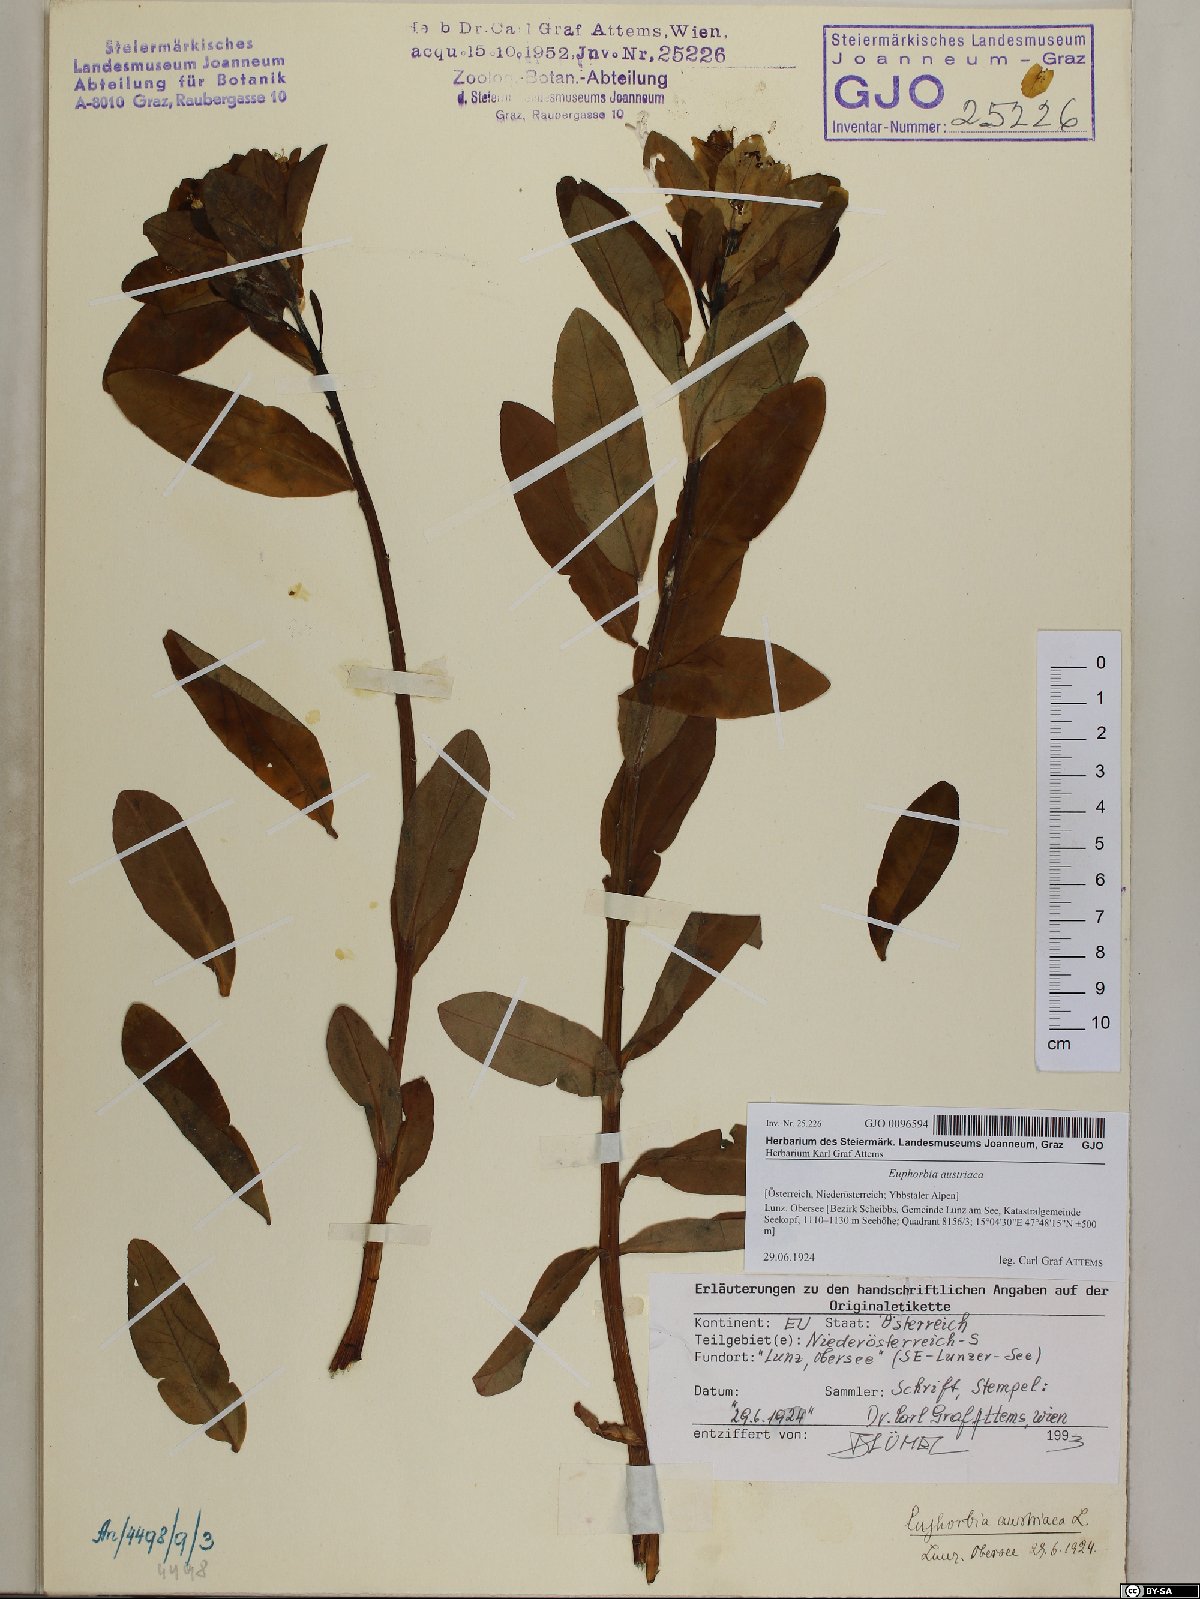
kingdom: Plantae
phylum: Tracheophyta
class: Magnoliopsida
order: Malpighiales
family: Euphorbiaceae
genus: Euphorbia
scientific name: Euphorbia austriaca
